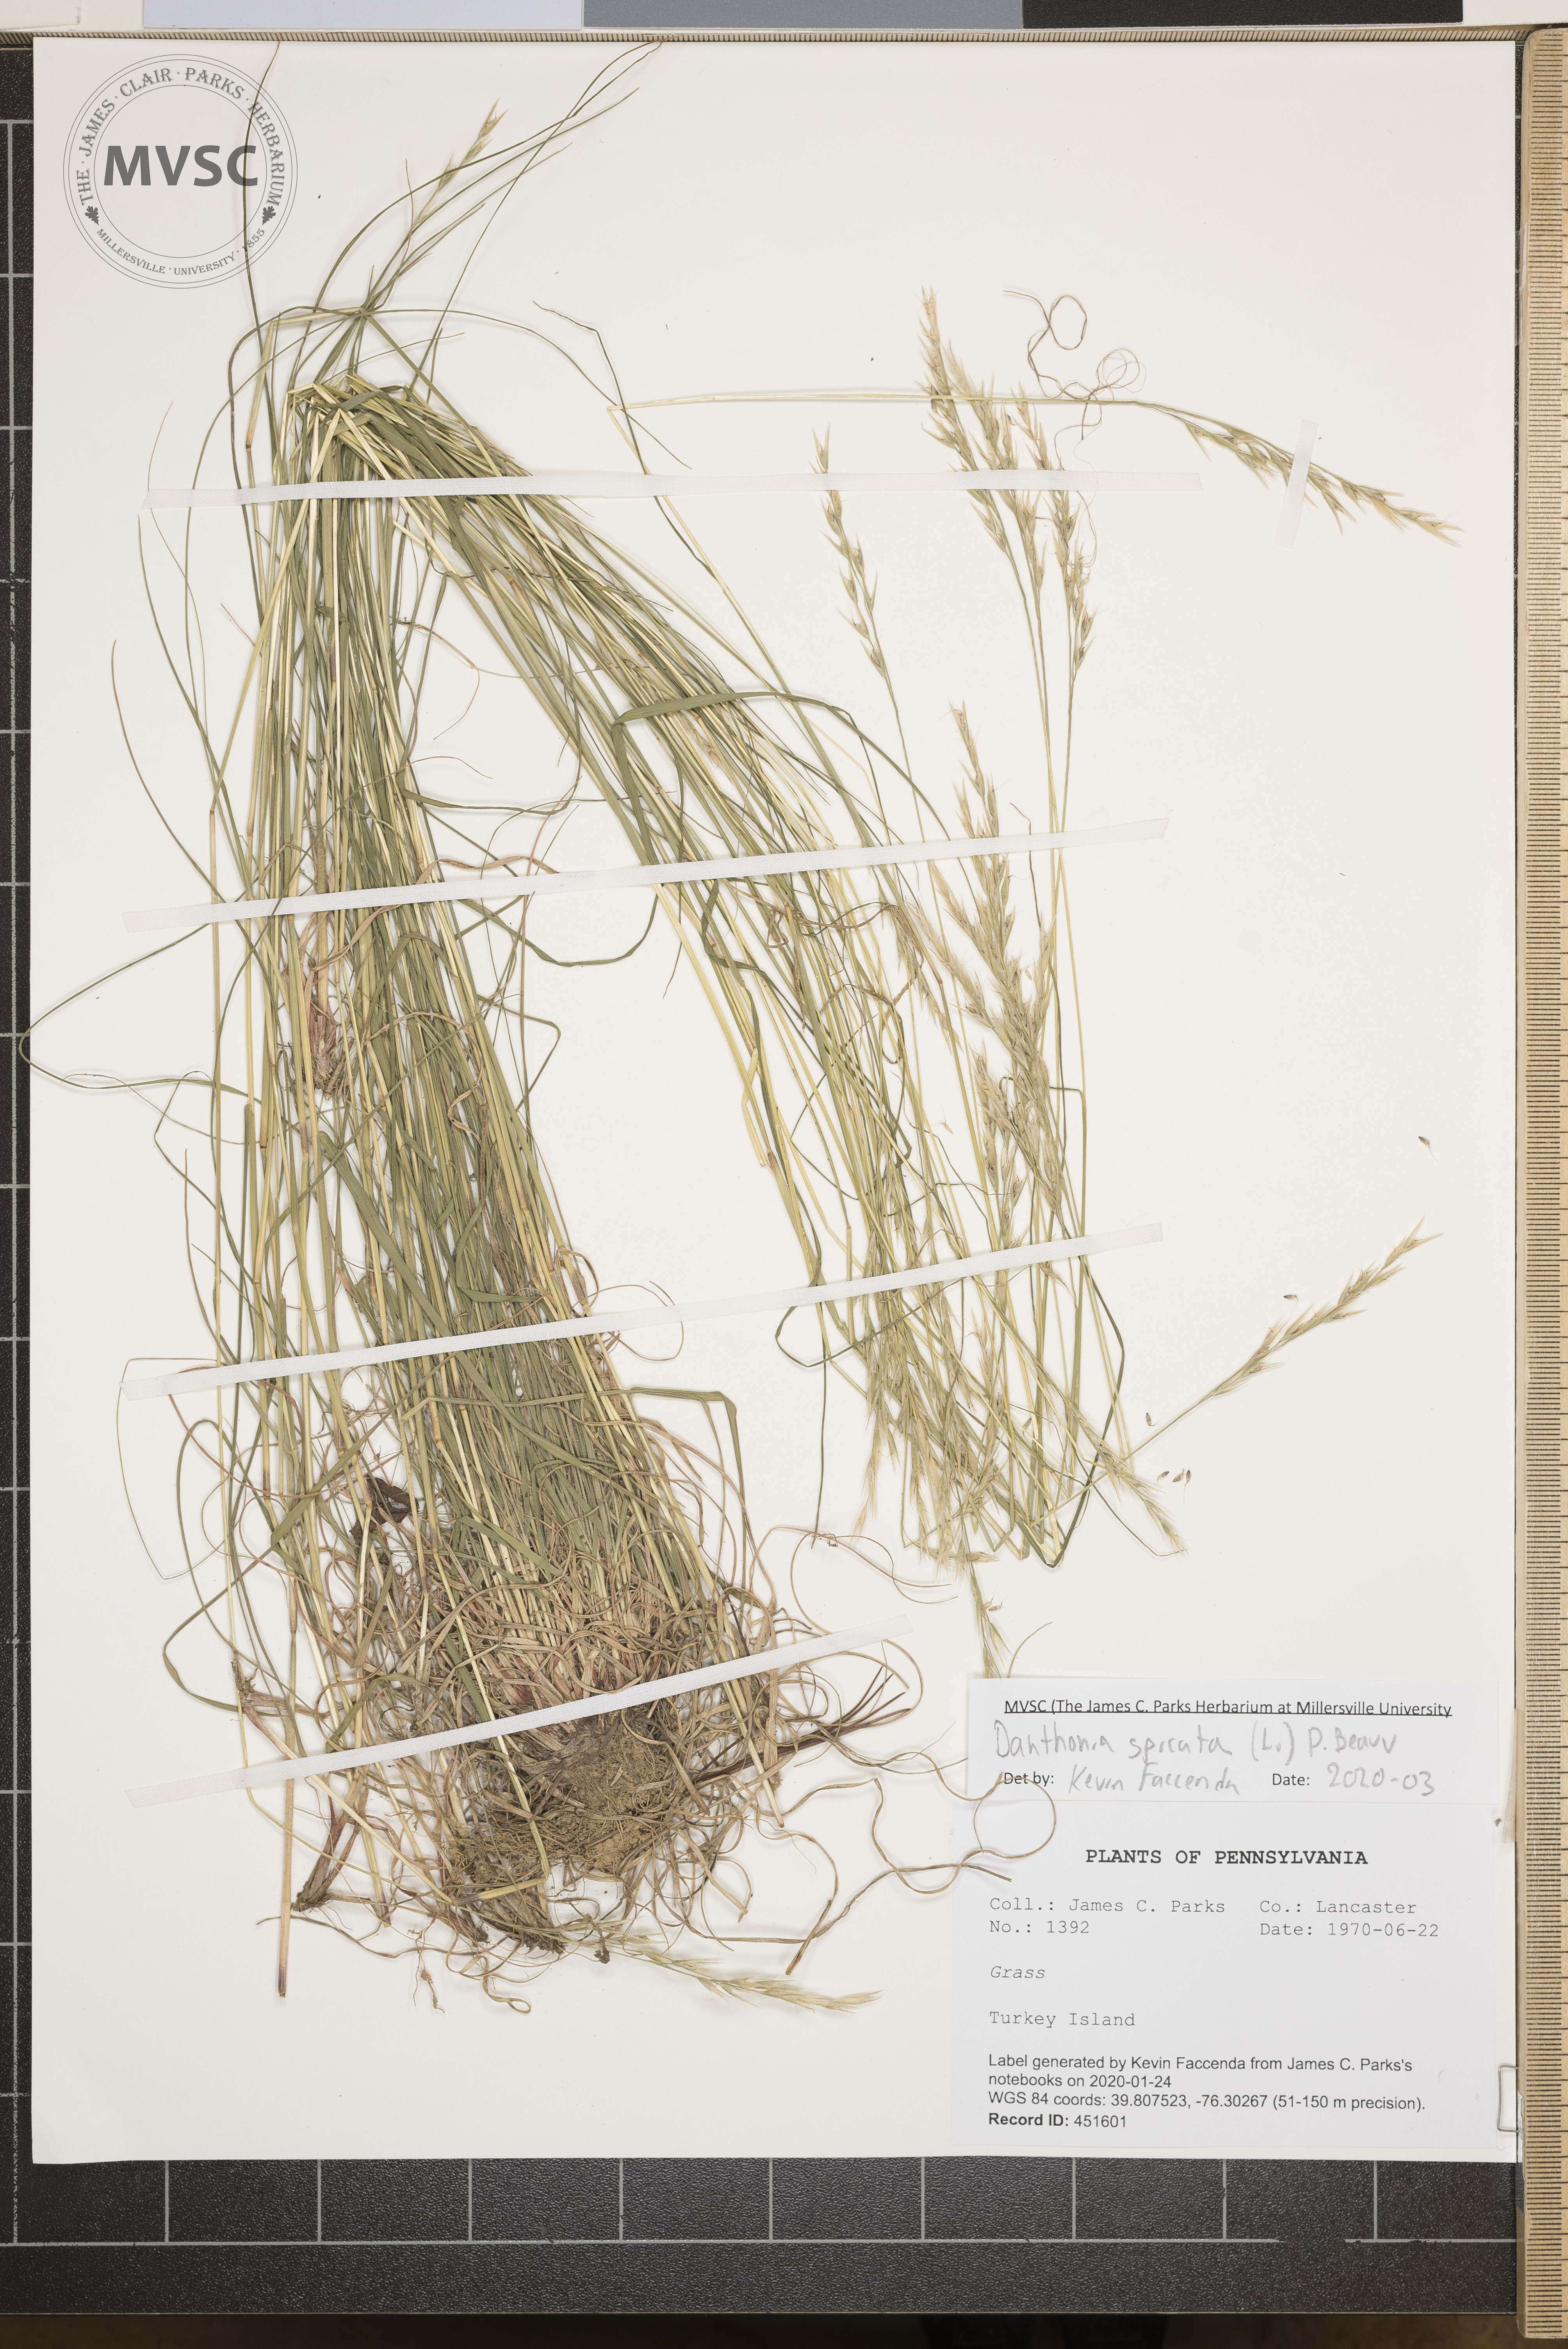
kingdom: Plantae
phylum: Tracheophyta
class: Liliopsida
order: Poales
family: Poaceae
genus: Danthonia
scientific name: Danthonia spicata
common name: Common wild oatgrass
